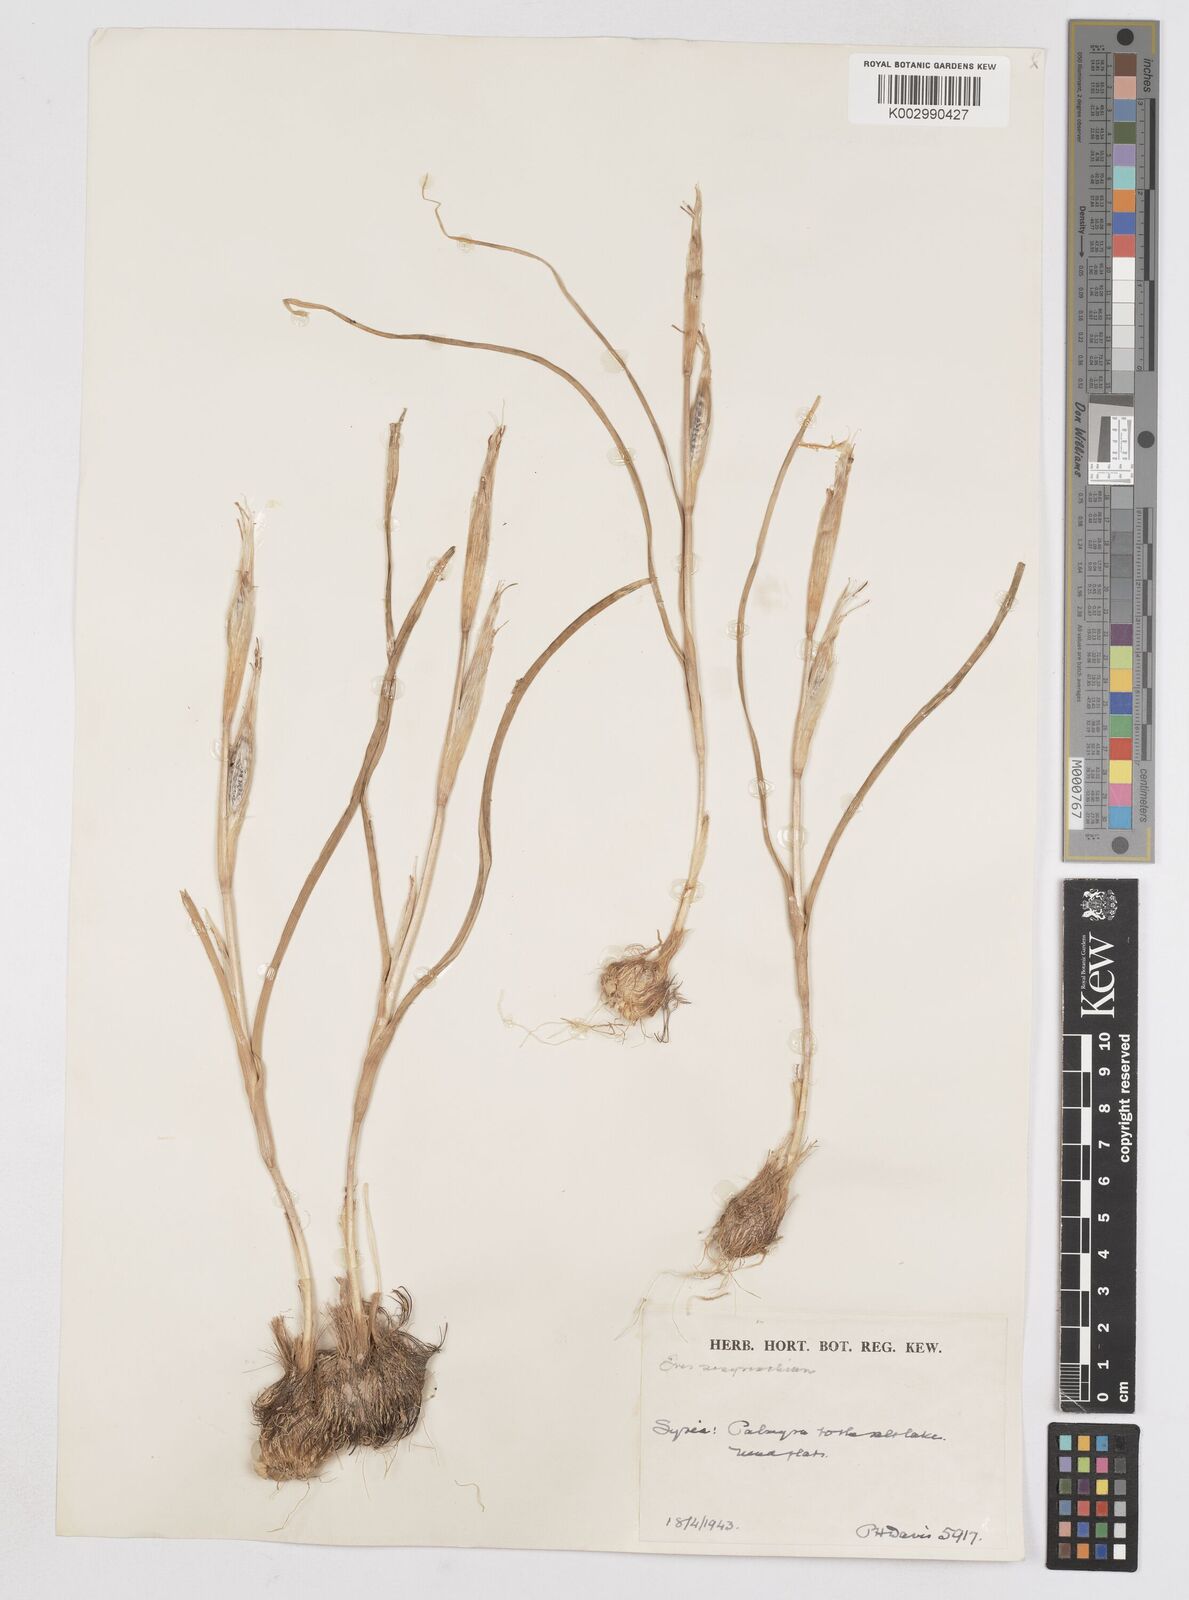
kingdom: Plantae
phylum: Tracheophyta
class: Liliopsida
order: Asparagales
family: Iridaceae
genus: Moraea
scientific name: Moraea sisyrinchium
